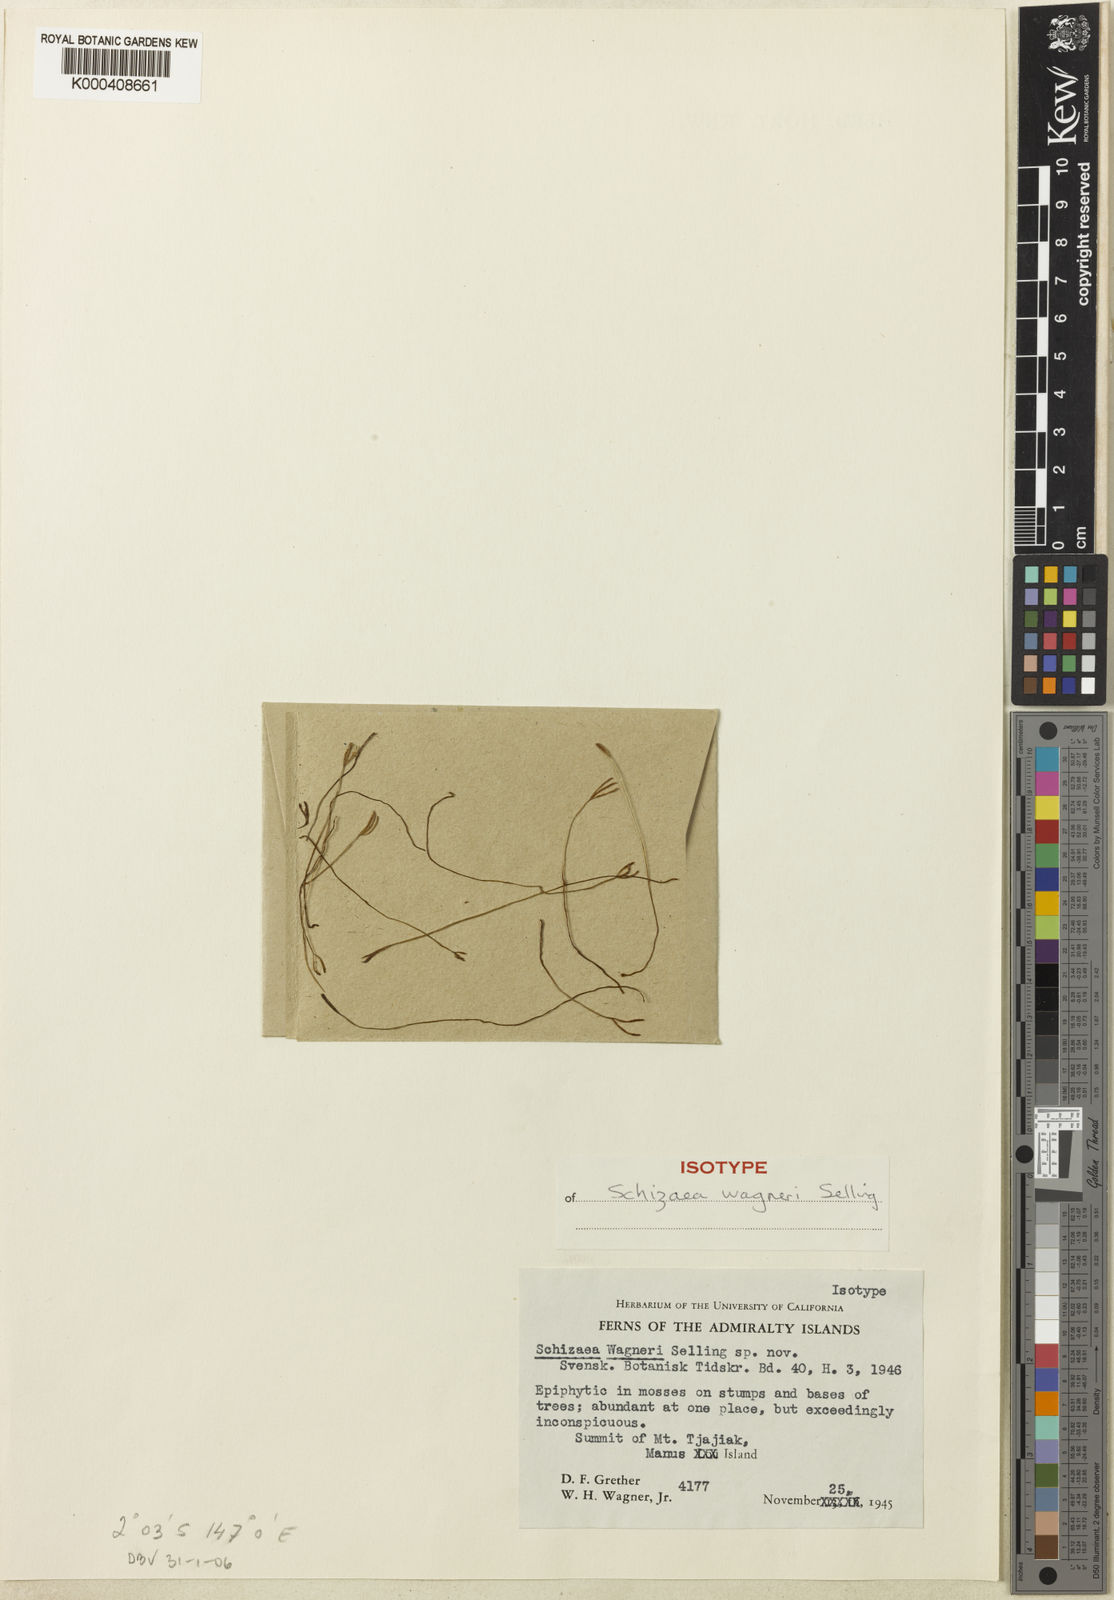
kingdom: Plantae
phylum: Tracheophyta
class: Polypodiopsida
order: Schizaeales
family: Schizaeaceae
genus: Actinostachys
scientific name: Actinostachys wagneri
